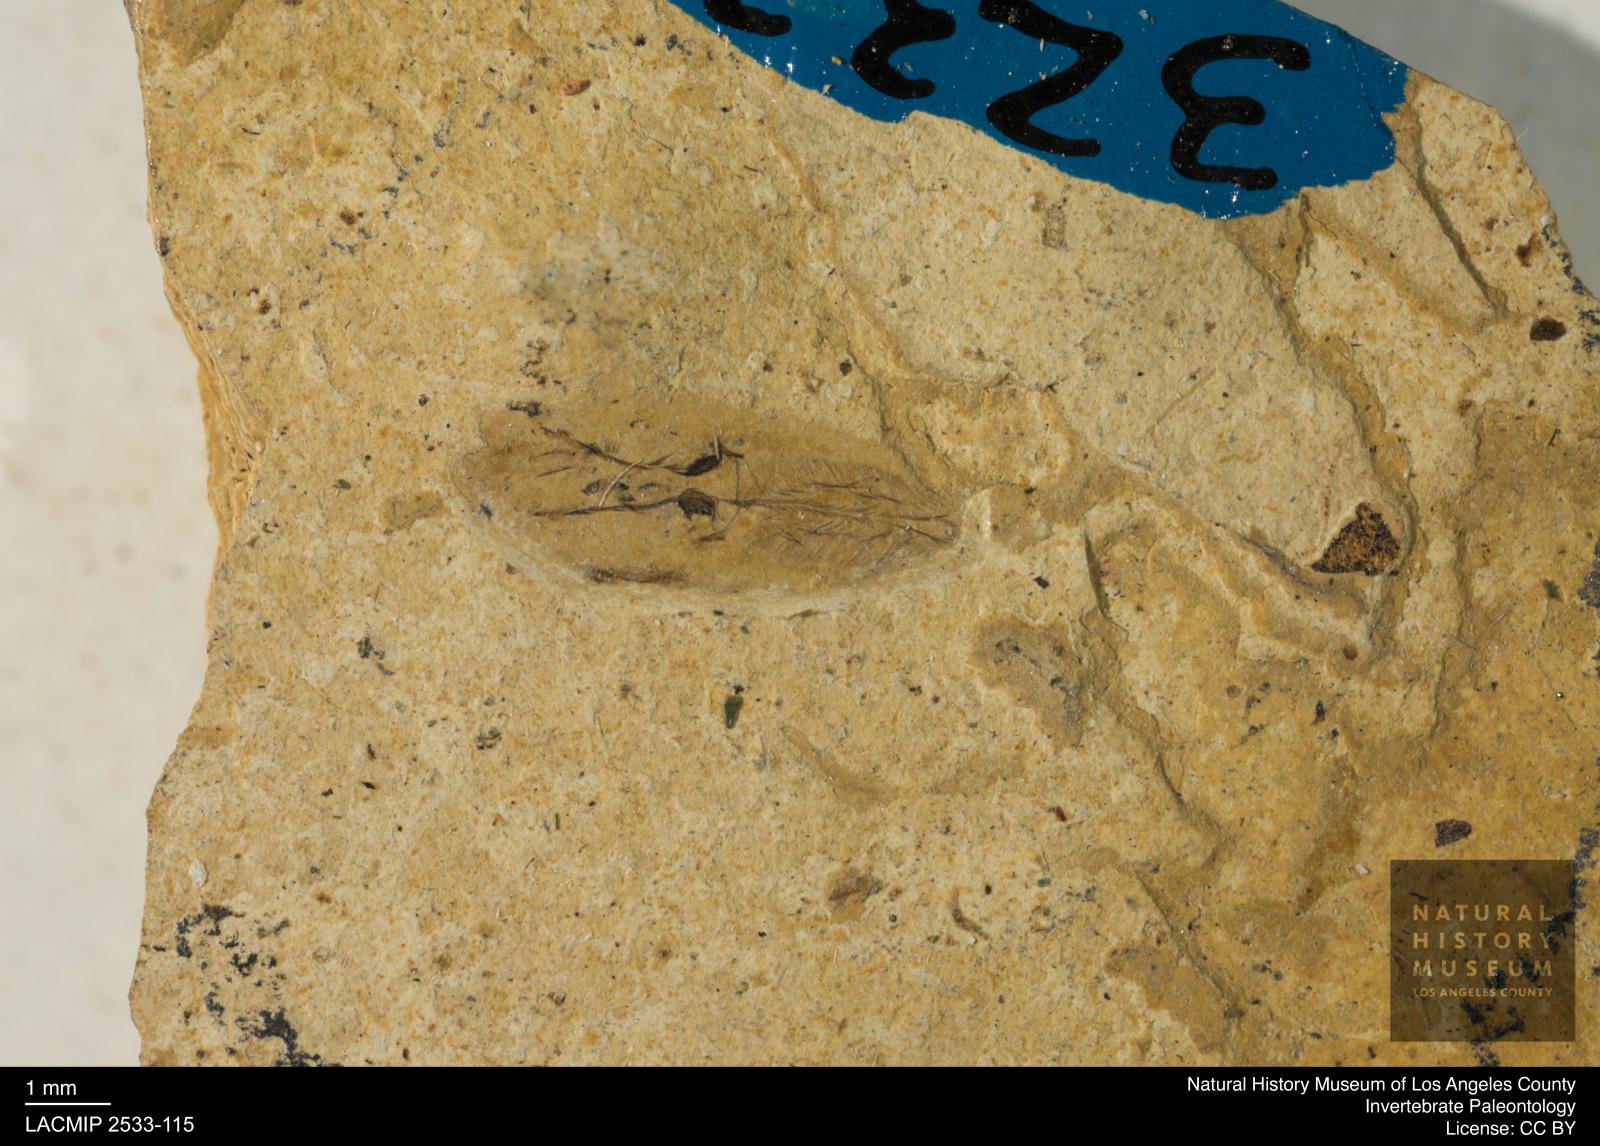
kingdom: Animalia
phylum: Arthropoda
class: Insecta
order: Hemiptera
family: Notonectidae
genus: Anisops
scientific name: Anisops Notonecta heydeni
